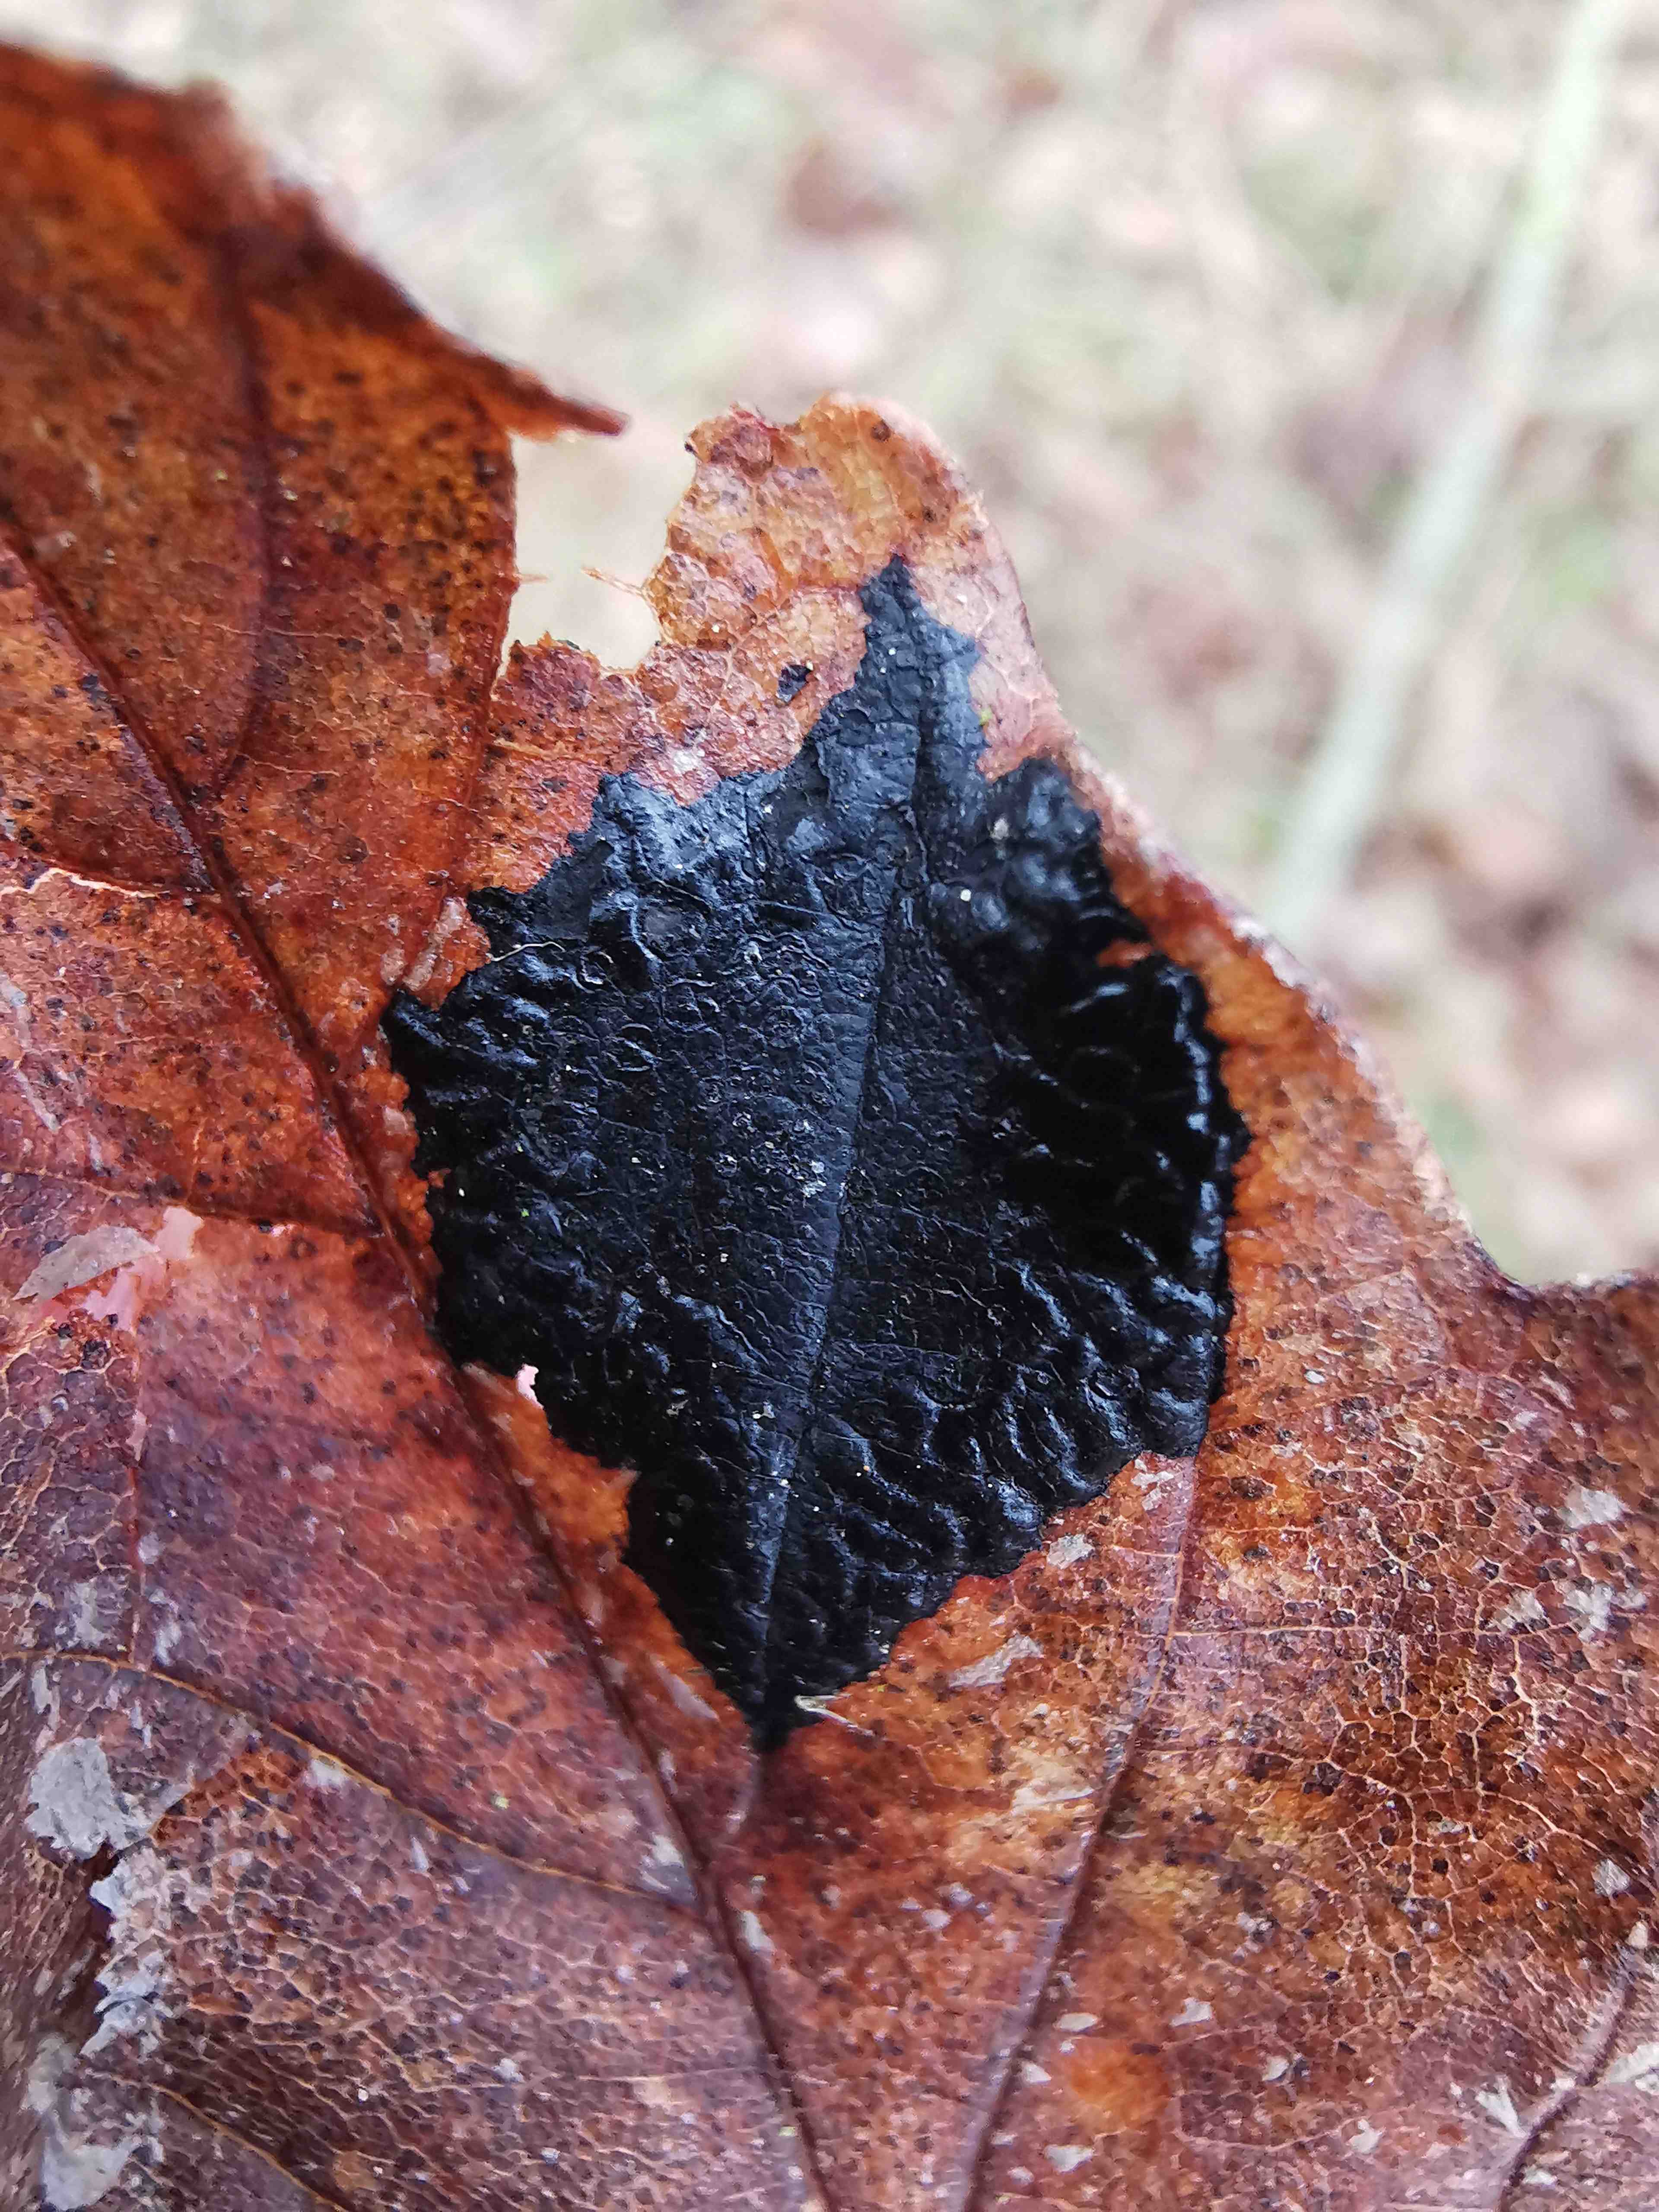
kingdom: Fungi
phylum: Ascomycota
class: Leotiomycetes
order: Rhytismatales
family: Rhytismataceae
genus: Rhytisma
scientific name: Rhytisma acerinum
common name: ahorn-rynkeplet
